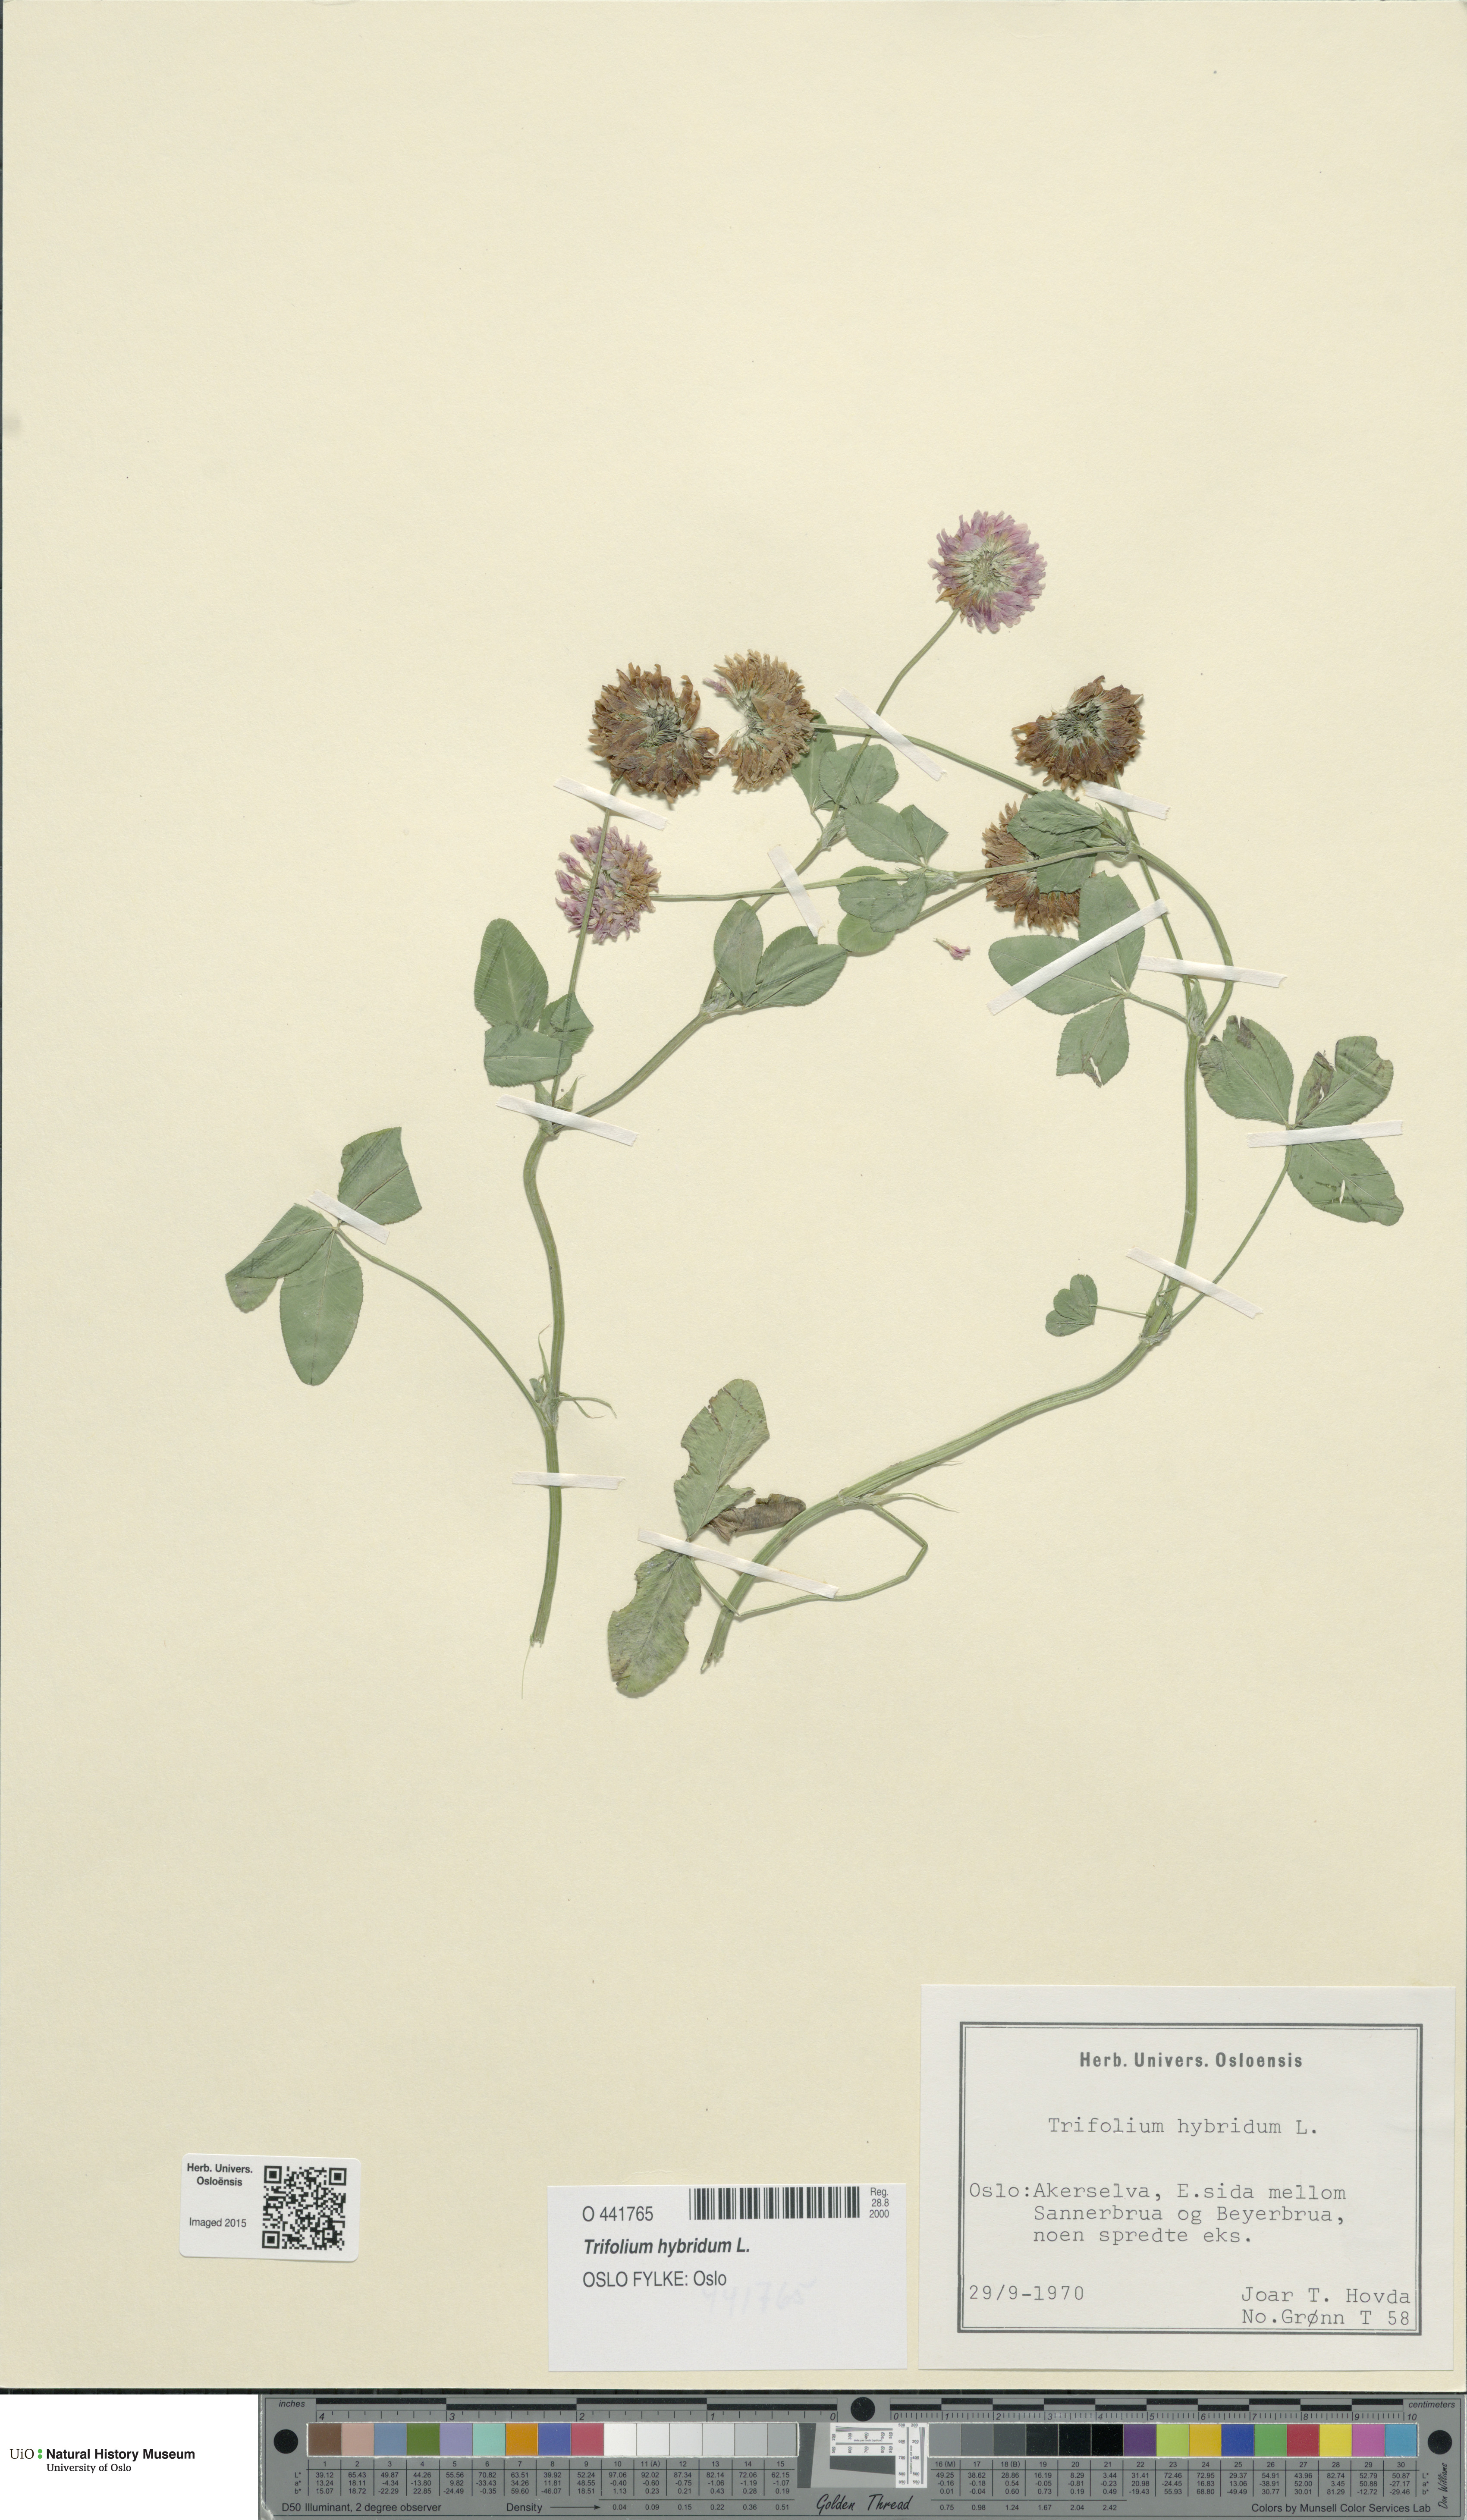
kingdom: Plantae
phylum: Tracheophyta
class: Magnoliopsida
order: Fabales
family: Fabaceae
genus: Trifolium
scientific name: Trifolium hybridum
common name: Alsike clover
